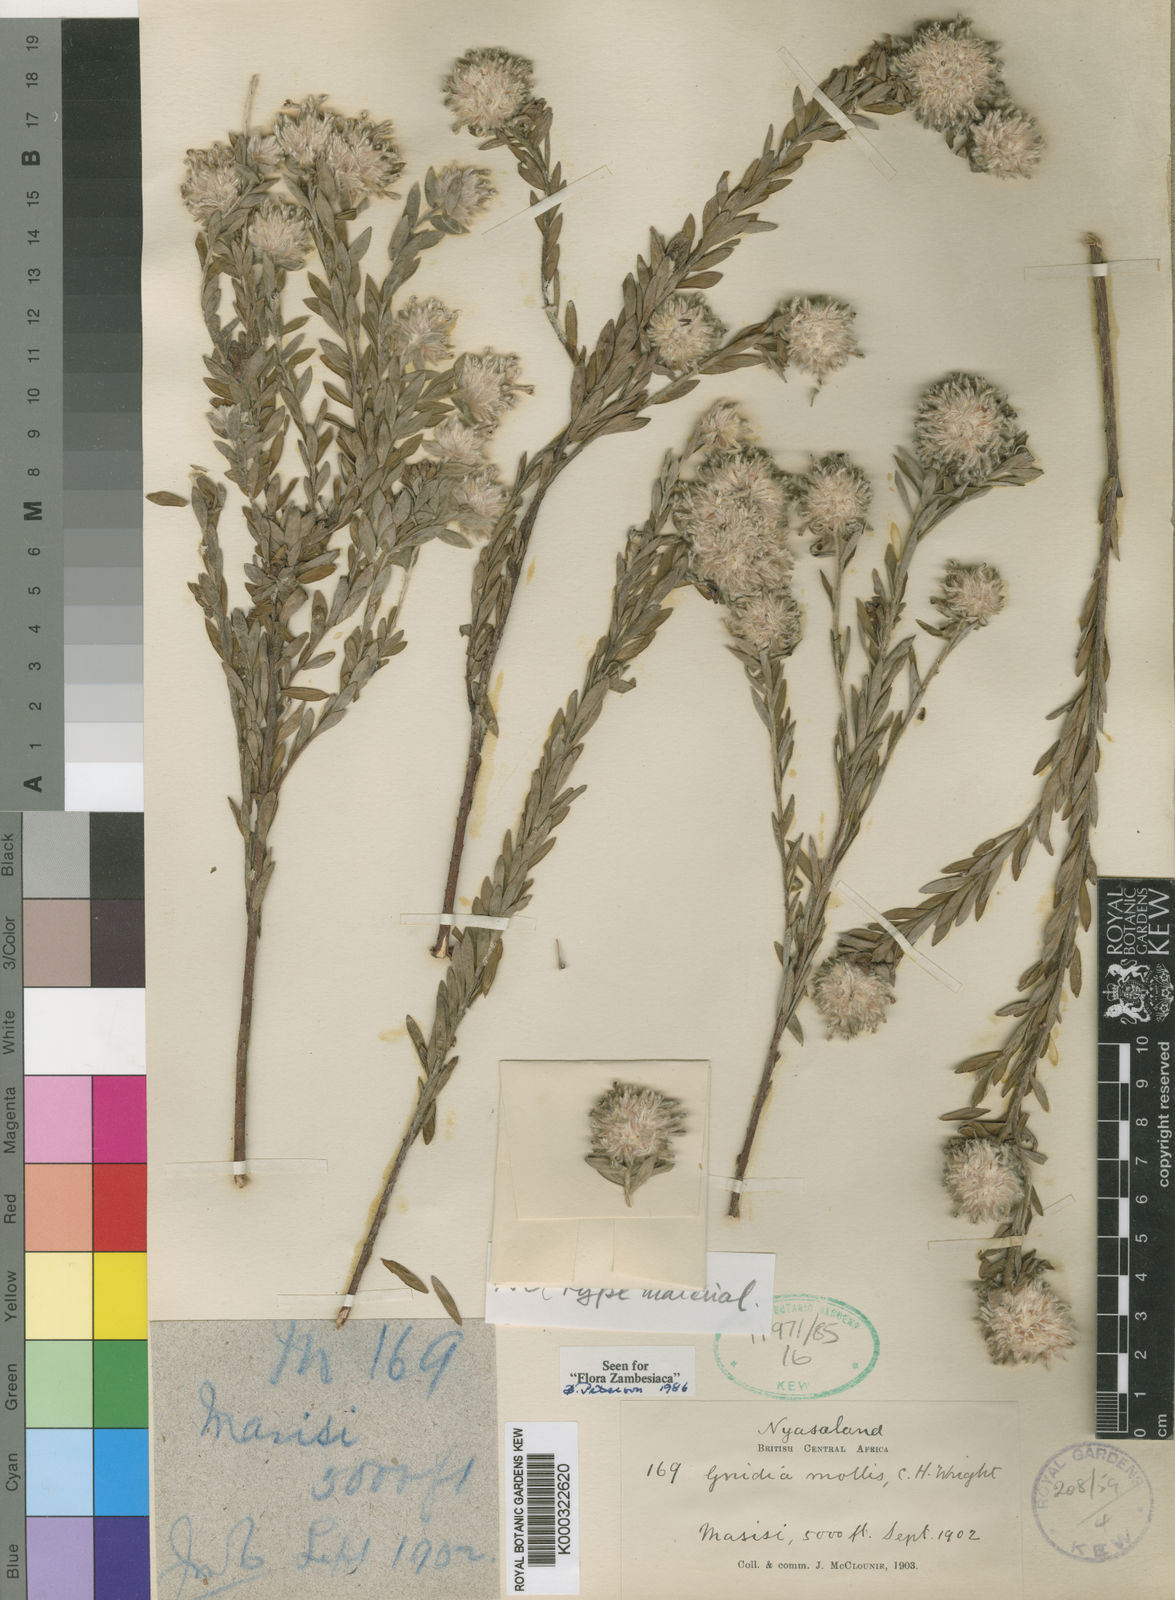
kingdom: Plantae
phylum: Tracheophyta
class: Magnoliopsida
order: Malvales
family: Thymelaeaceae
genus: Gnidia
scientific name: Gnidia mollis
